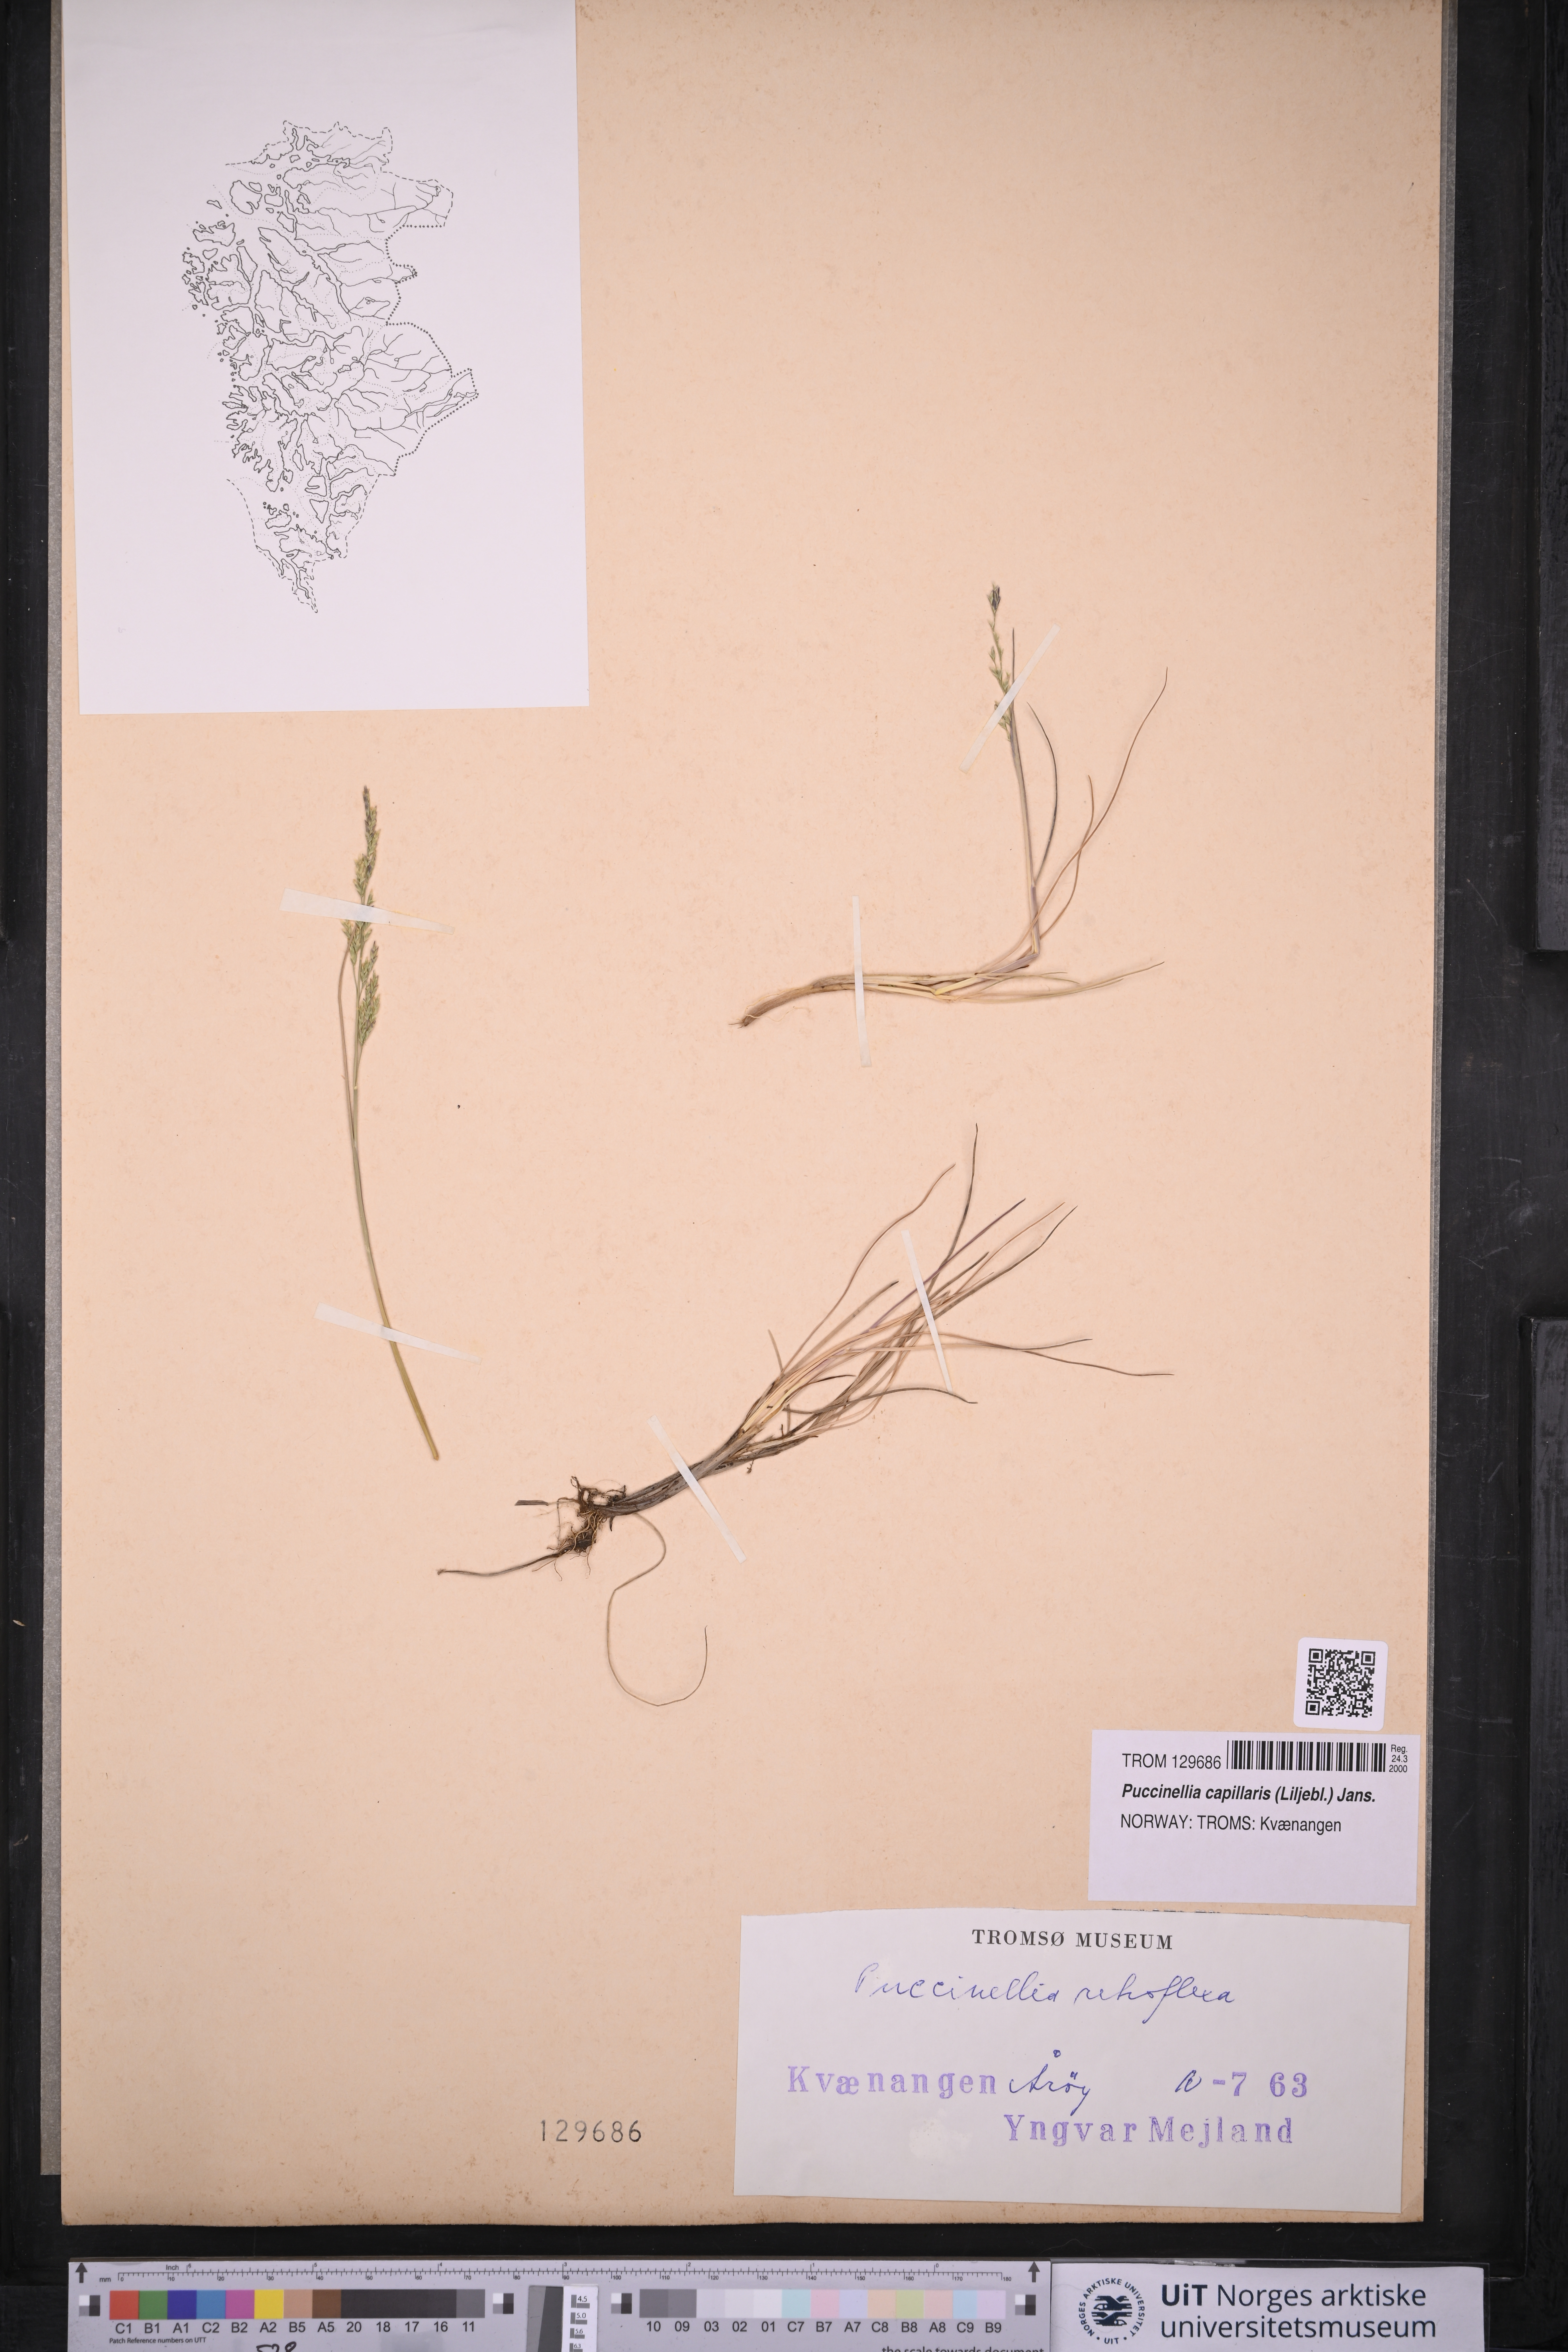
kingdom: Plantae
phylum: Tracheophyta
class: Liliopsida
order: Poales
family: Poaceae
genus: Puccinellia
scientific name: Puccinellia distans
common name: Weeping alkaligrass
